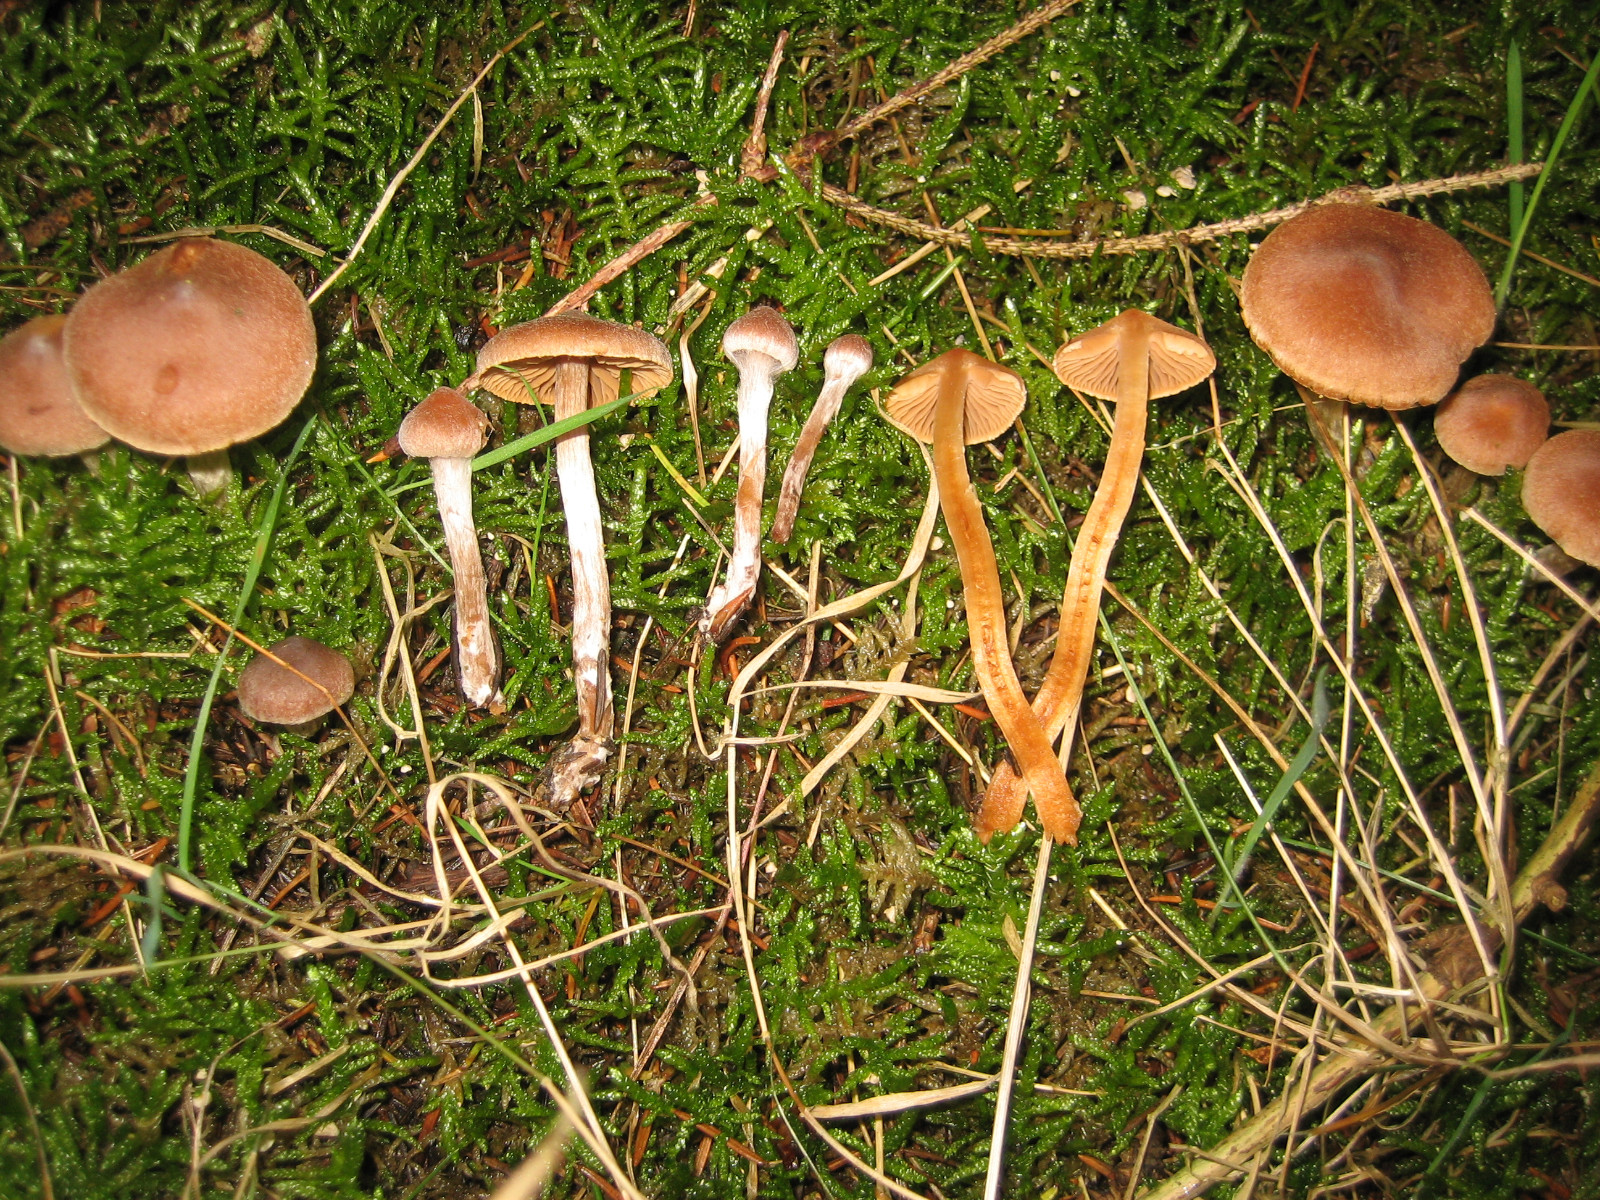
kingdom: Fungi
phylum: Basidiomycota
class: Agaricomycetes
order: Agaricales
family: Cortinariaceae
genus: Cortinarius
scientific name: Cortinarius comptulus
